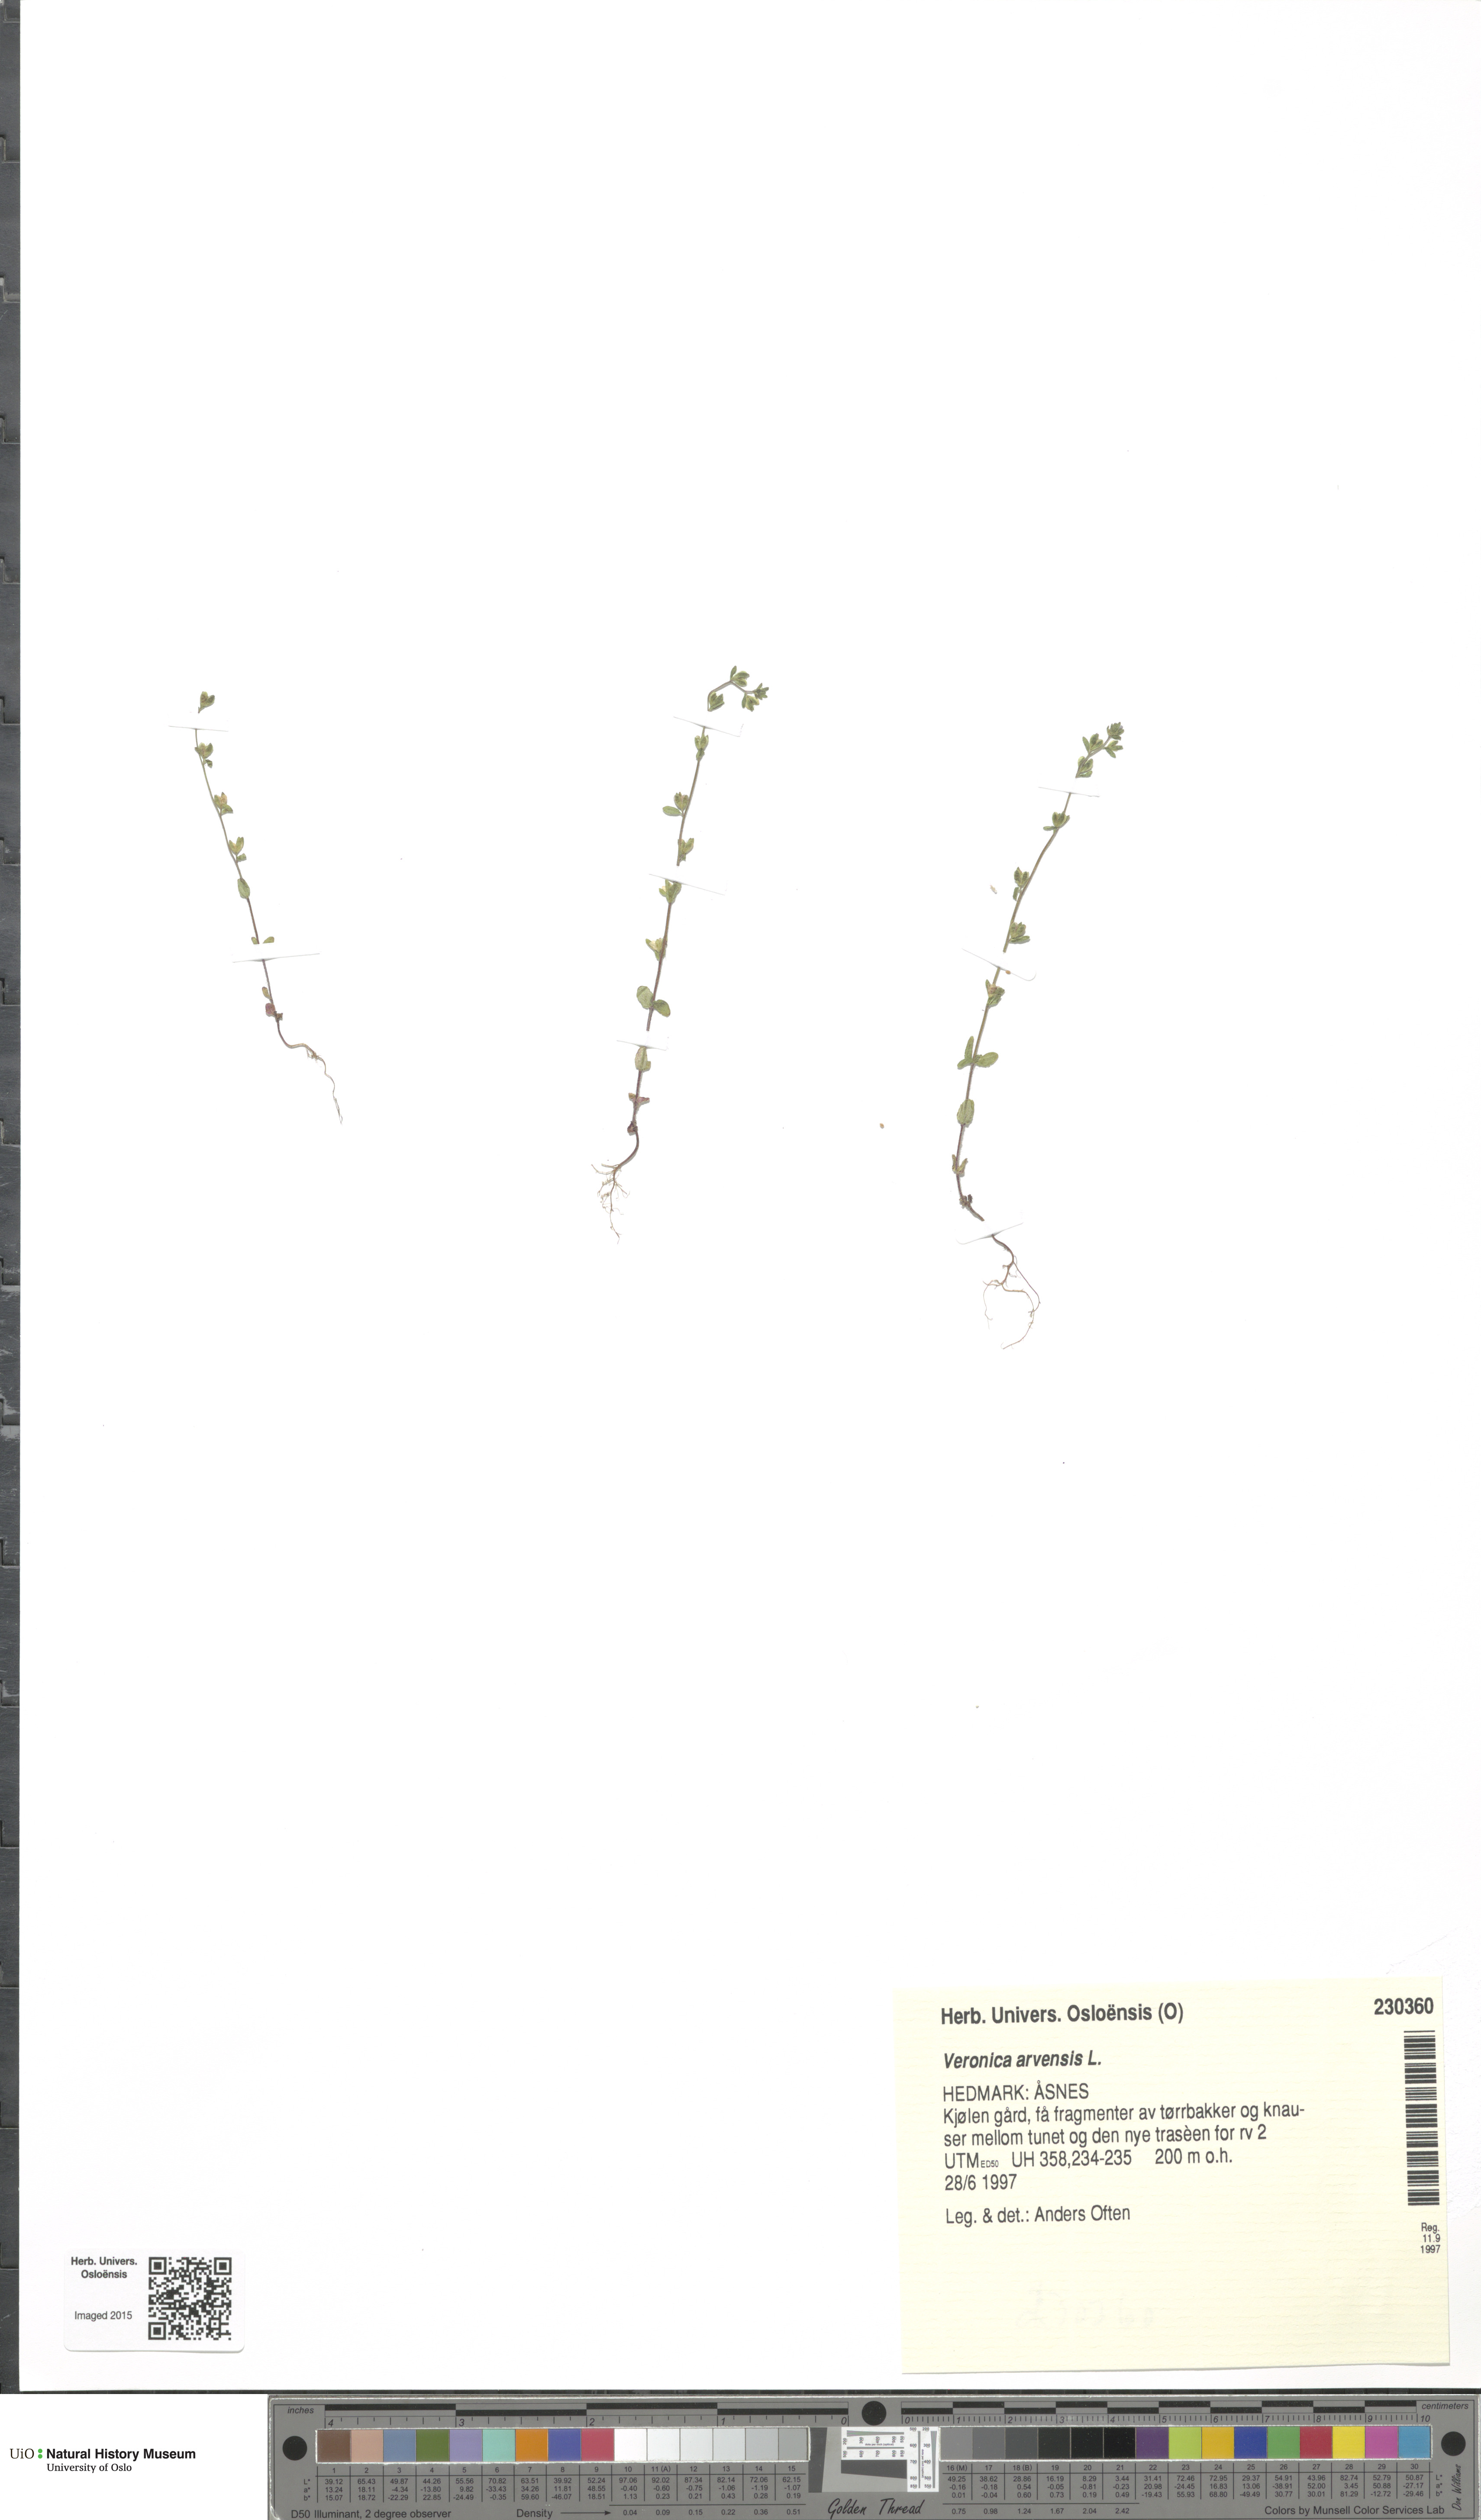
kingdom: Plantae
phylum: Tracheophyta
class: Magnoliopsida
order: Lamiales
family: Plantaginaceae
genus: Veronica
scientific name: Veronica arvensis
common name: Corn speedwell
